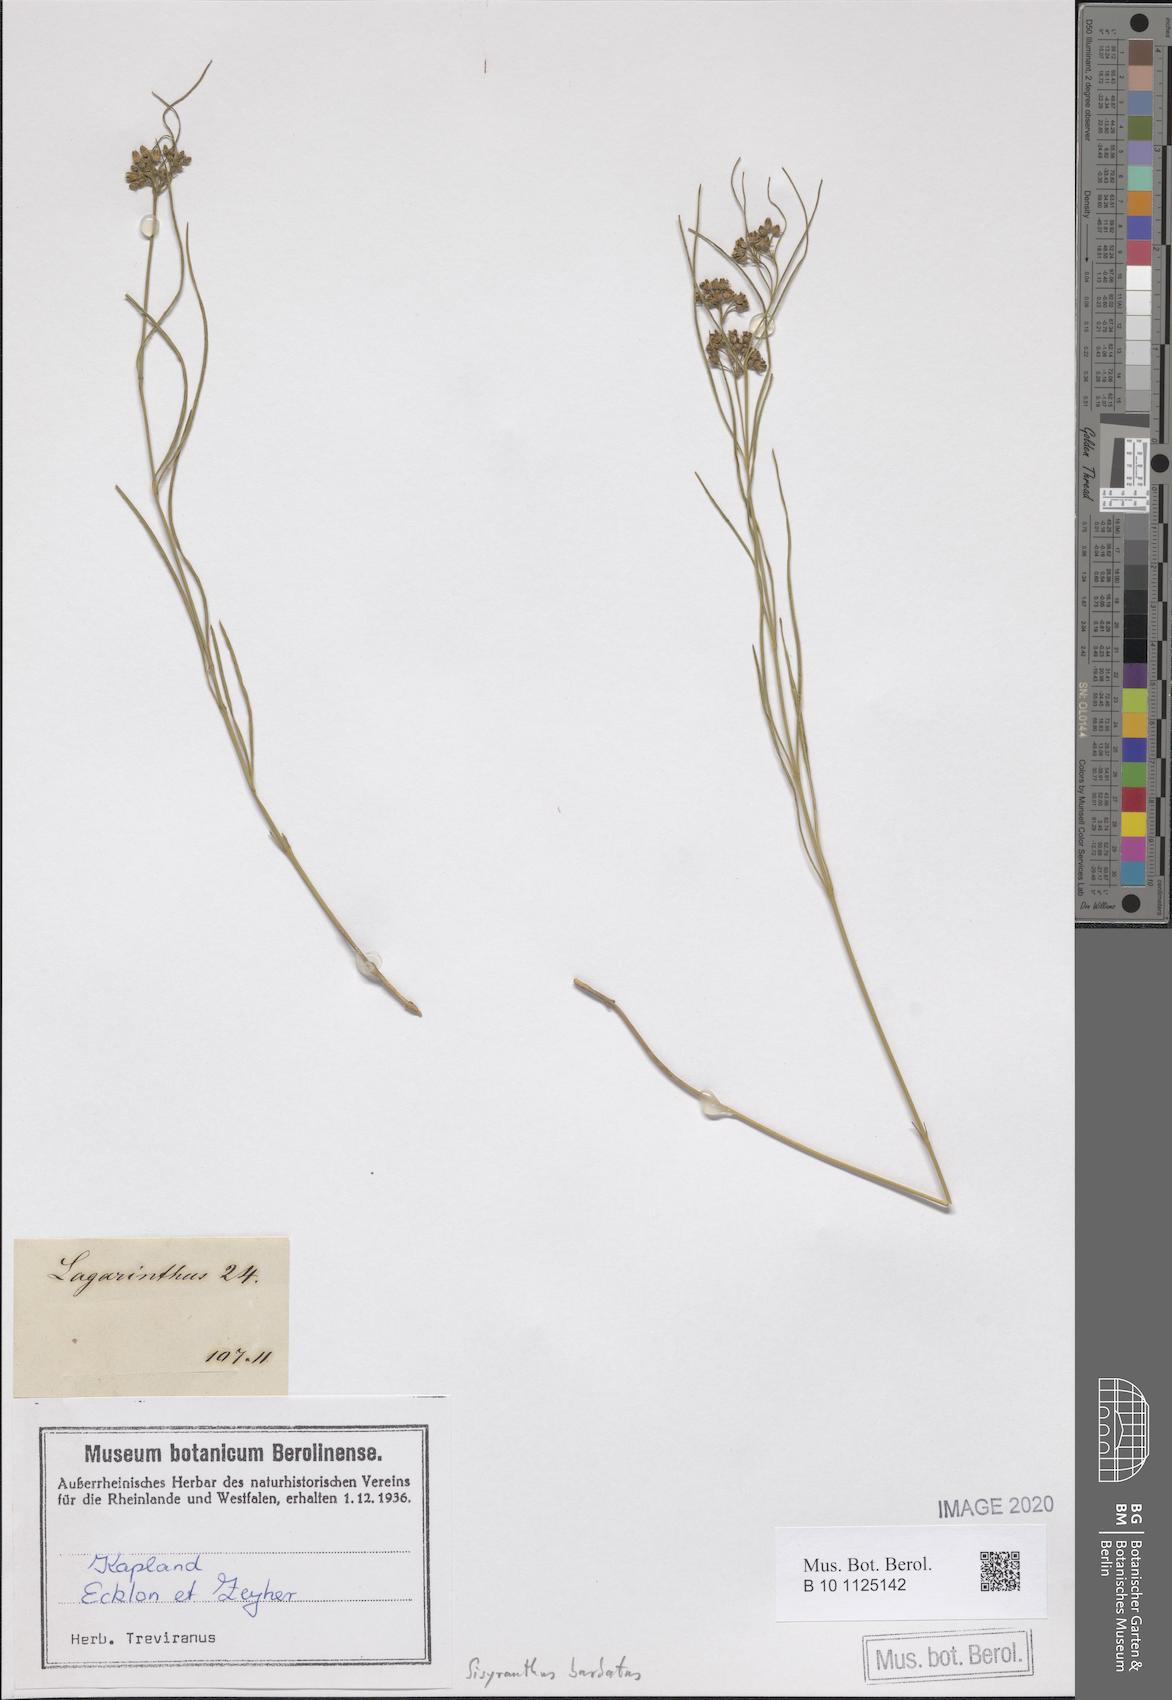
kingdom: Plantae
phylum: Tracheophyta
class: Magnoliopsida
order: Gentianales
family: Apocynaceae
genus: Sisyranthus
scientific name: Sisyranthus barbatus
